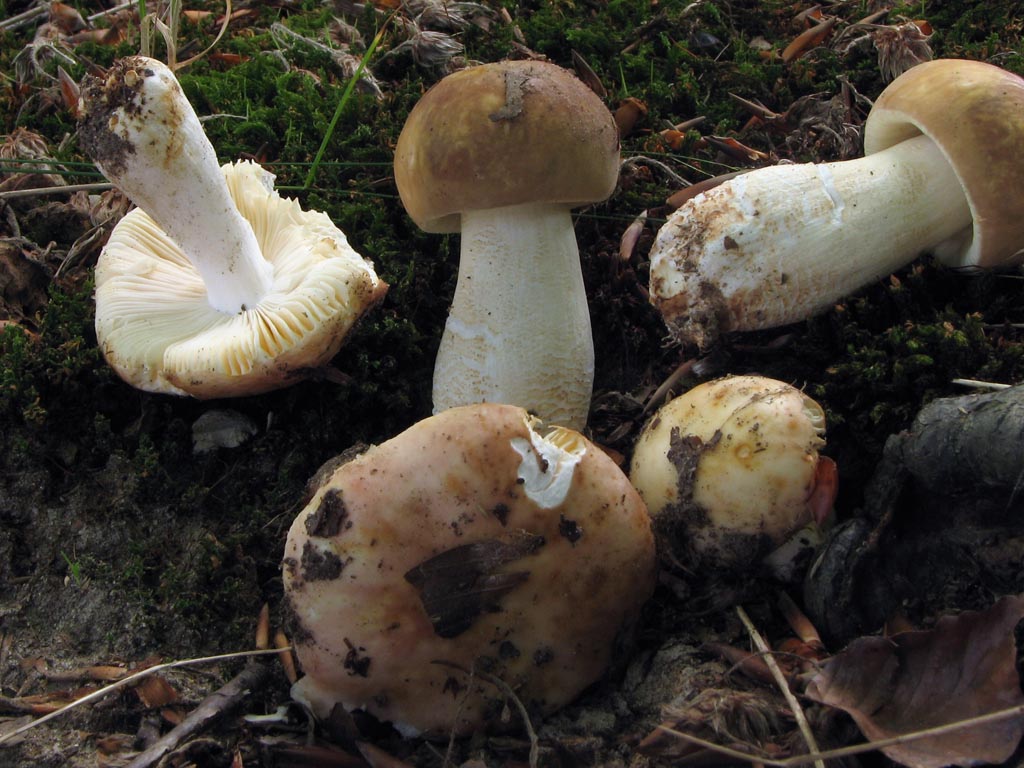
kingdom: Fungi
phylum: Basidiomycota
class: Agaricomycetes
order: Russulales
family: Russulaceae
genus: Russula
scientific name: Russula maculata
